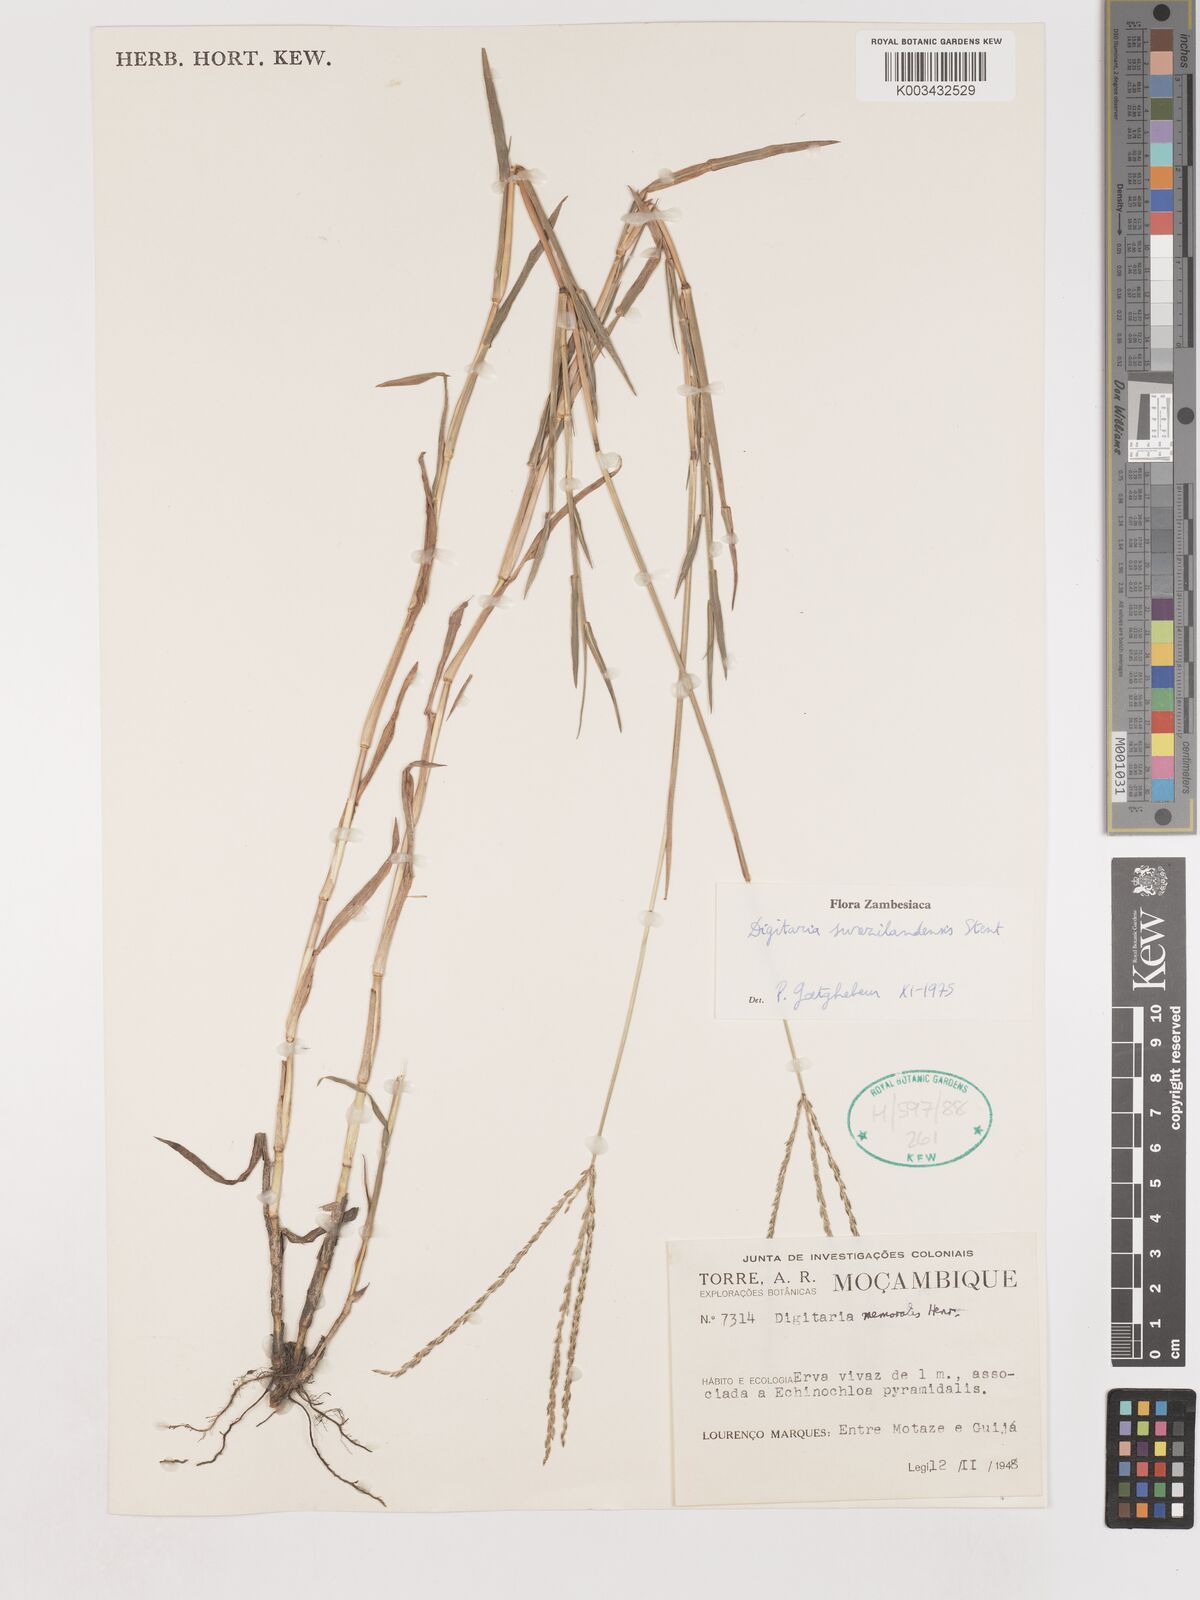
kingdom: Plantae
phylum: Tracheophyta
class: Liliopsida
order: Poales
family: Poaceae
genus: Digitaria
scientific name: Digitaria didactyla
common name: Blue couch
